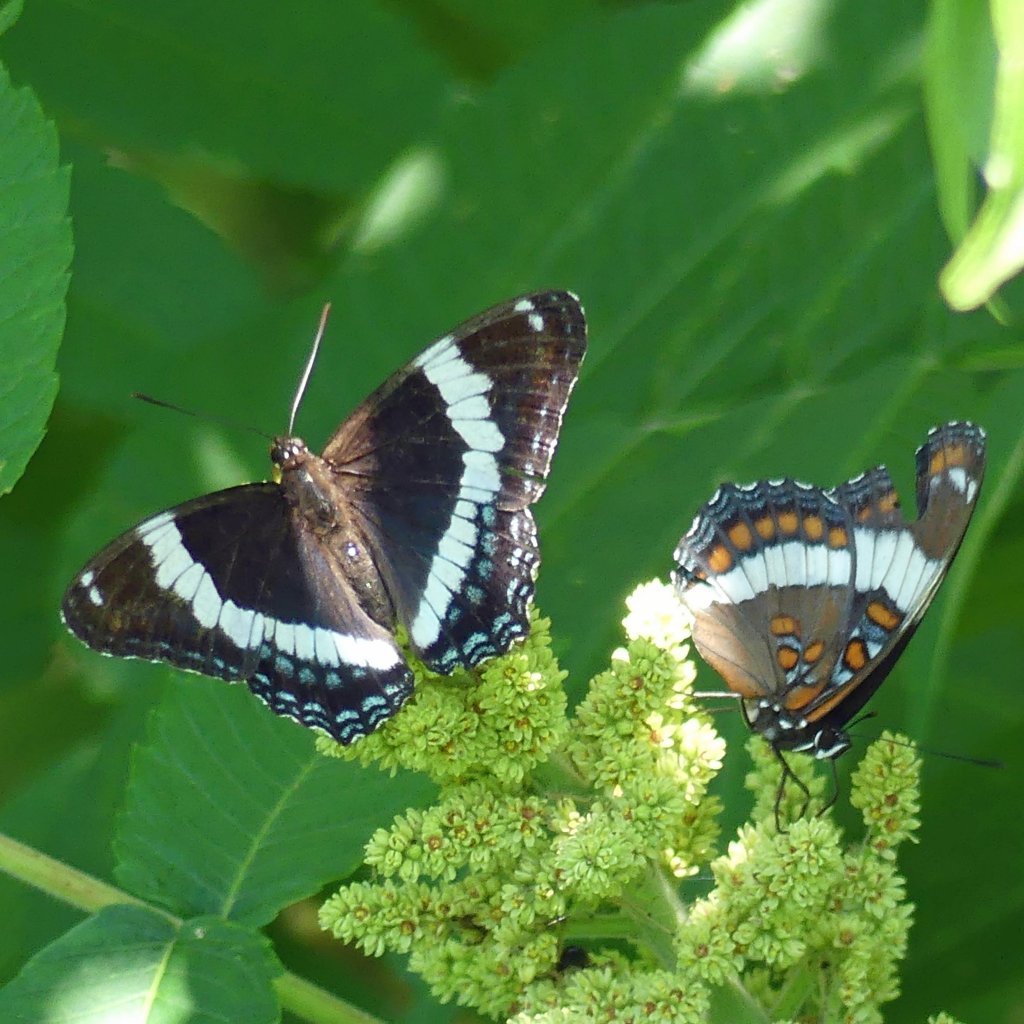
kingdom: Animalia
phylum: Arthropoda
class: Insecta
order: Lepidoptera
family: Nymphalidae
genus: Limenitis
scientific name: Limenitis arthemis
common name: Red-spotted Admiral
